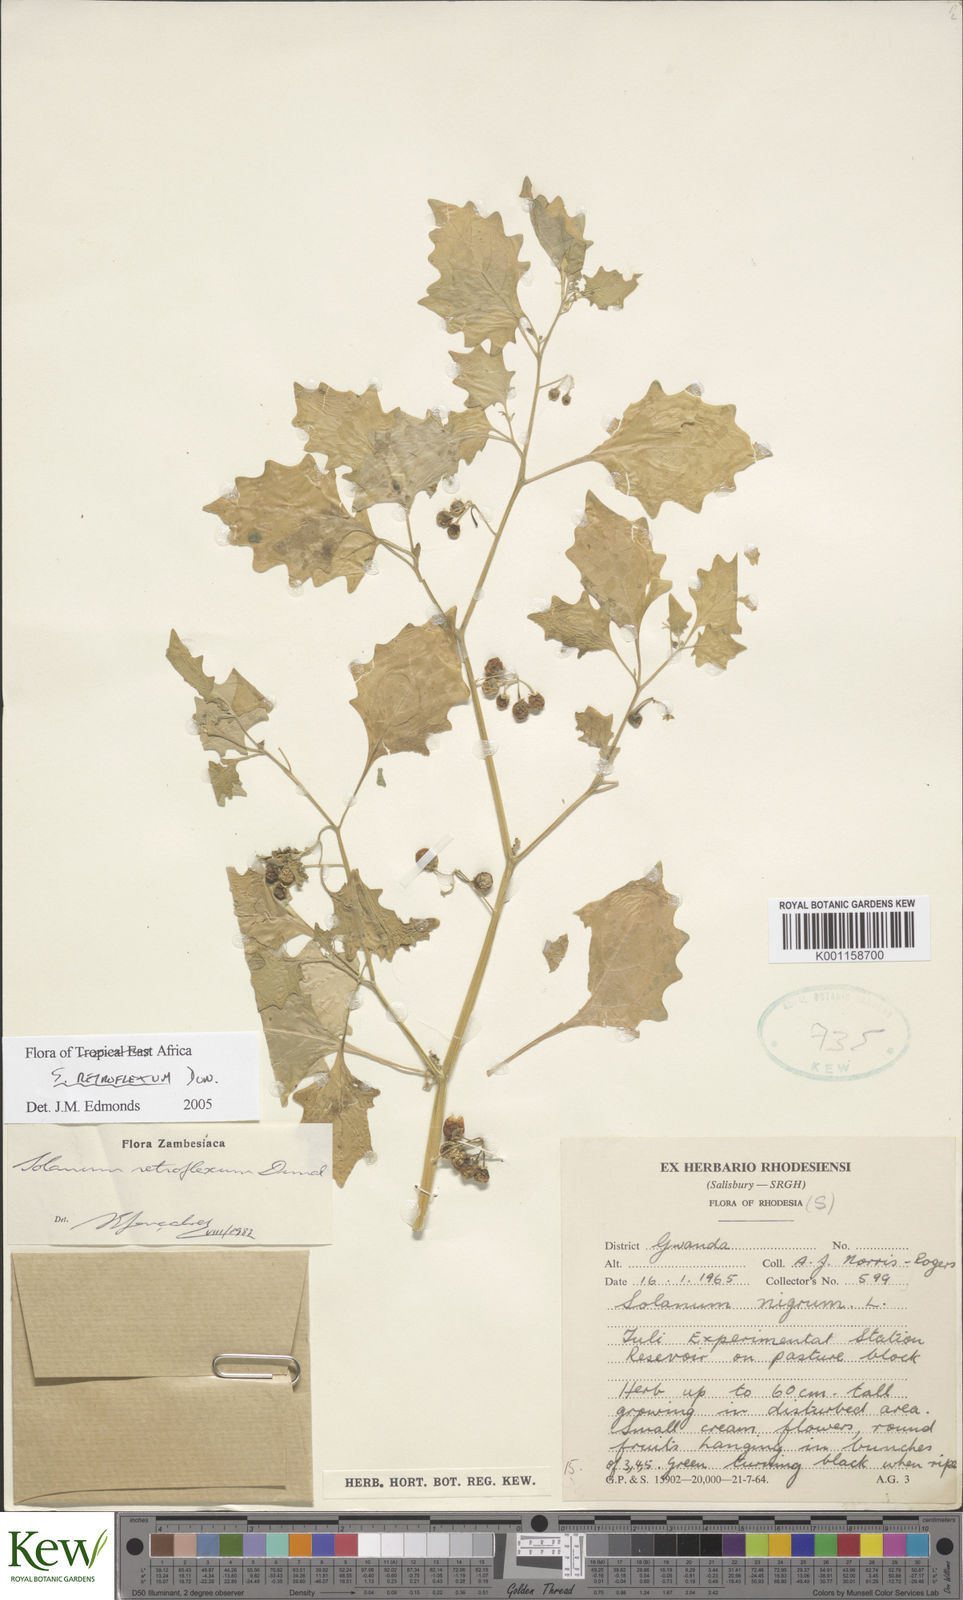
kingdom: Plantae
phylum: Tracheophyta
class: Magnoliopsida
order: Solanales
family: Solanaceae
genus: Solanum
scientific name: Solanum retroflexum
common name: Wonderberry
